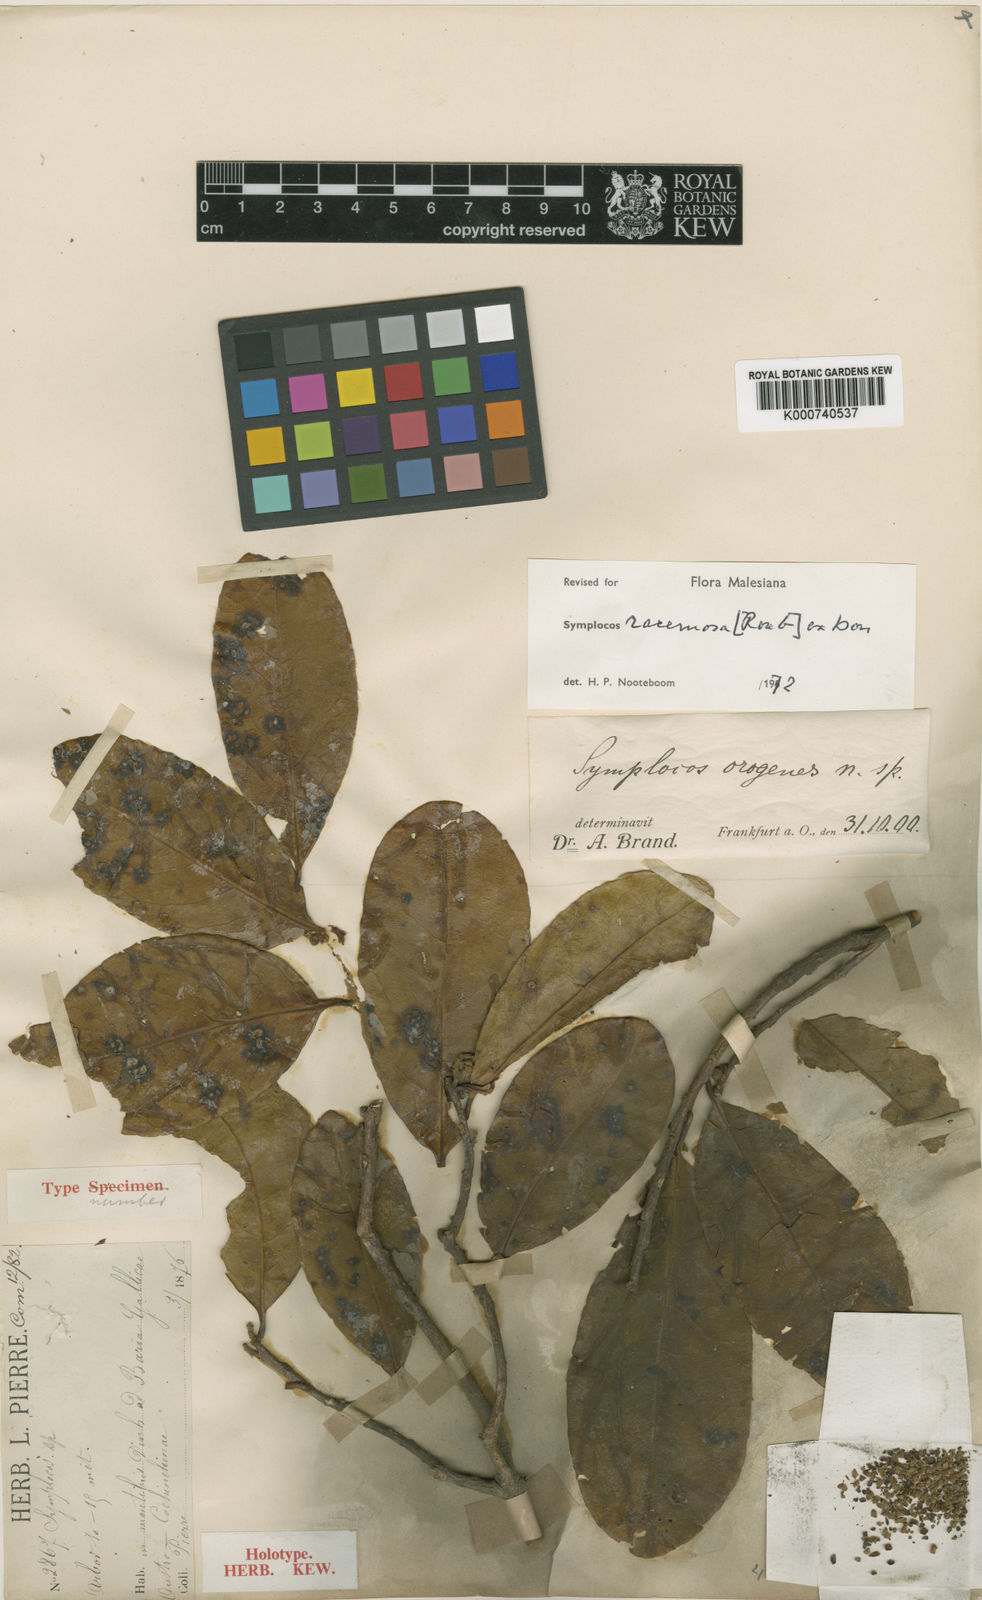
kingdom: Plantae
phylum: Tracheophyta
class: Magnoliopsida
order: Ericales
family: Symplocaceae
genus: Symplocos
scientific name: Symplocos racemosa
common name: Lodhtree
